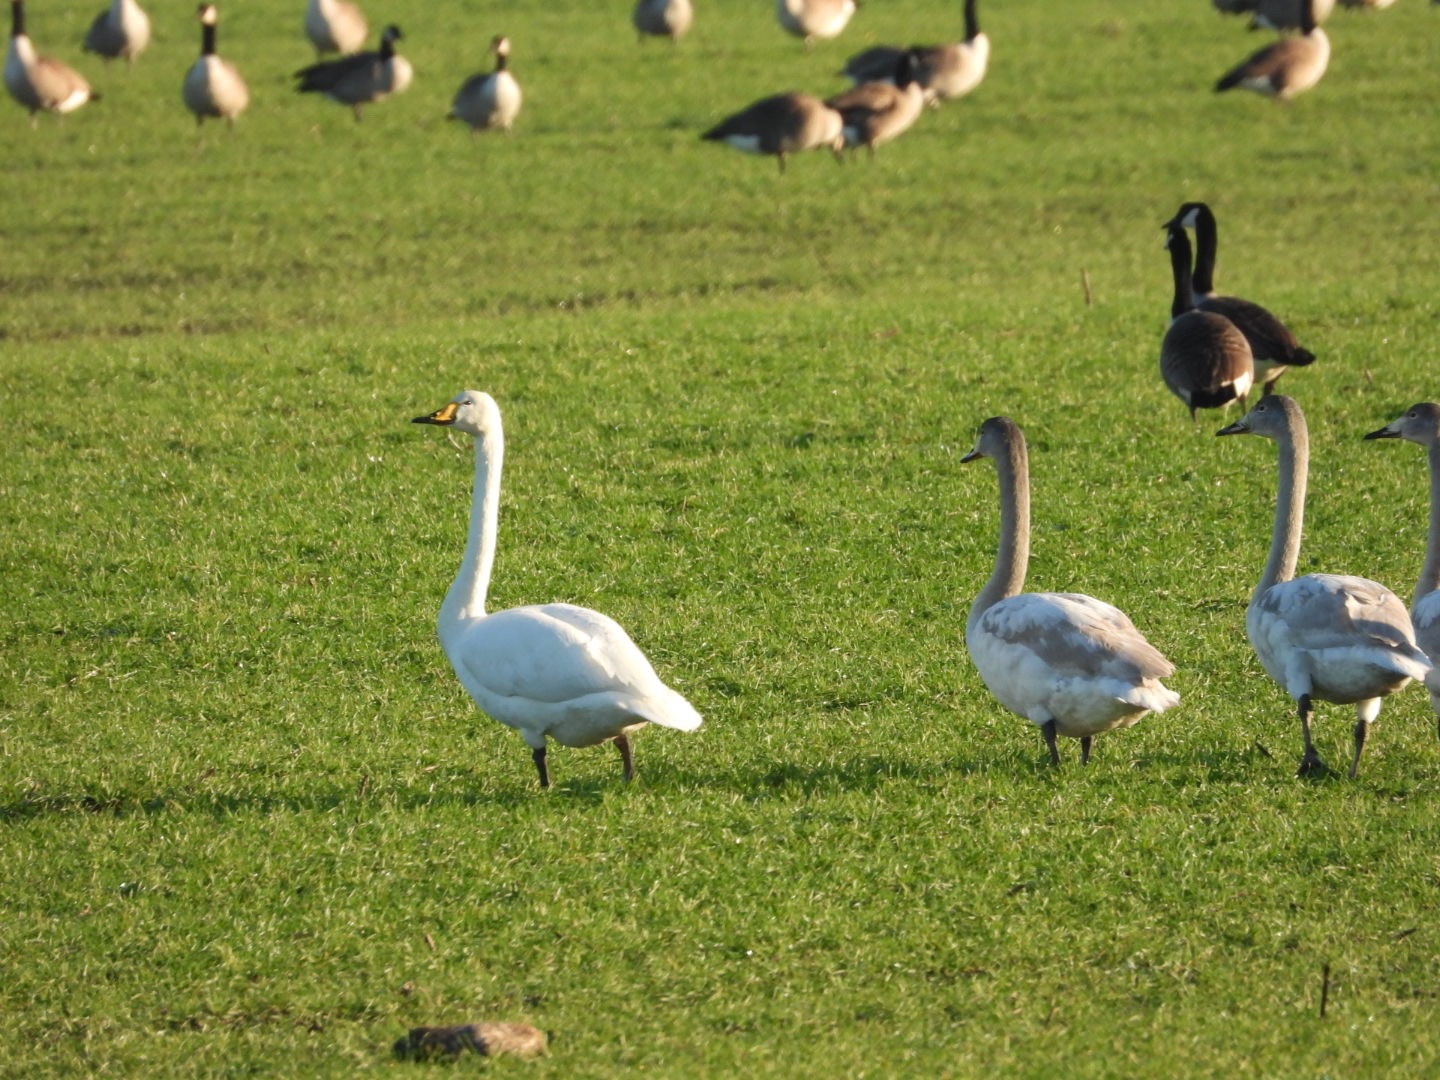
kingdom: Animalia
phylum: Chordata
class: Aves
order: Anseriformes
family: Anatidae
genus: Cygnus
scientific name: Cygnus cygnus
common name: Sangsvane
